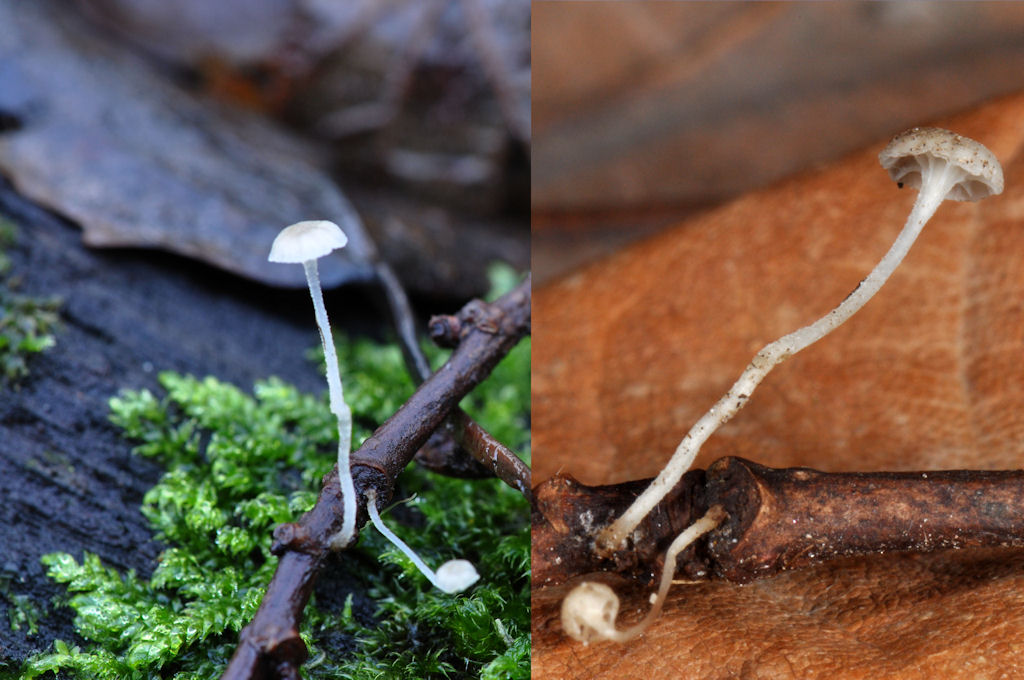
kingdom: Fungi
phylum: Basidiomycota
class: Agaricomycetes
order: Agaricales
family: Porotheleaceae
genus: Phloeomana
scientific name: Phloeomana speirea
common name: kvist-huesvamp
